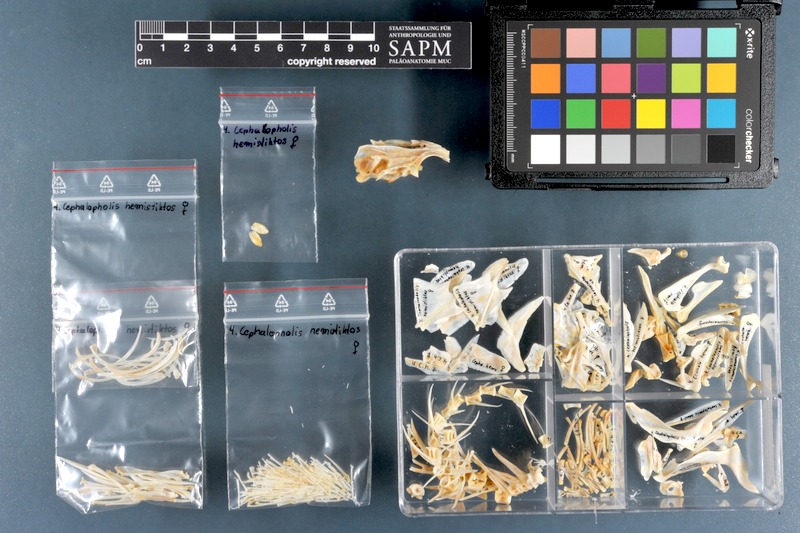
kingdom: Animalia
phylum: Chordata
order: Perciformes
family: Serranidae
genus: Cephalopholis
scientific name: Cephalopholis hemistiktos
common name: Halfspotted hind
